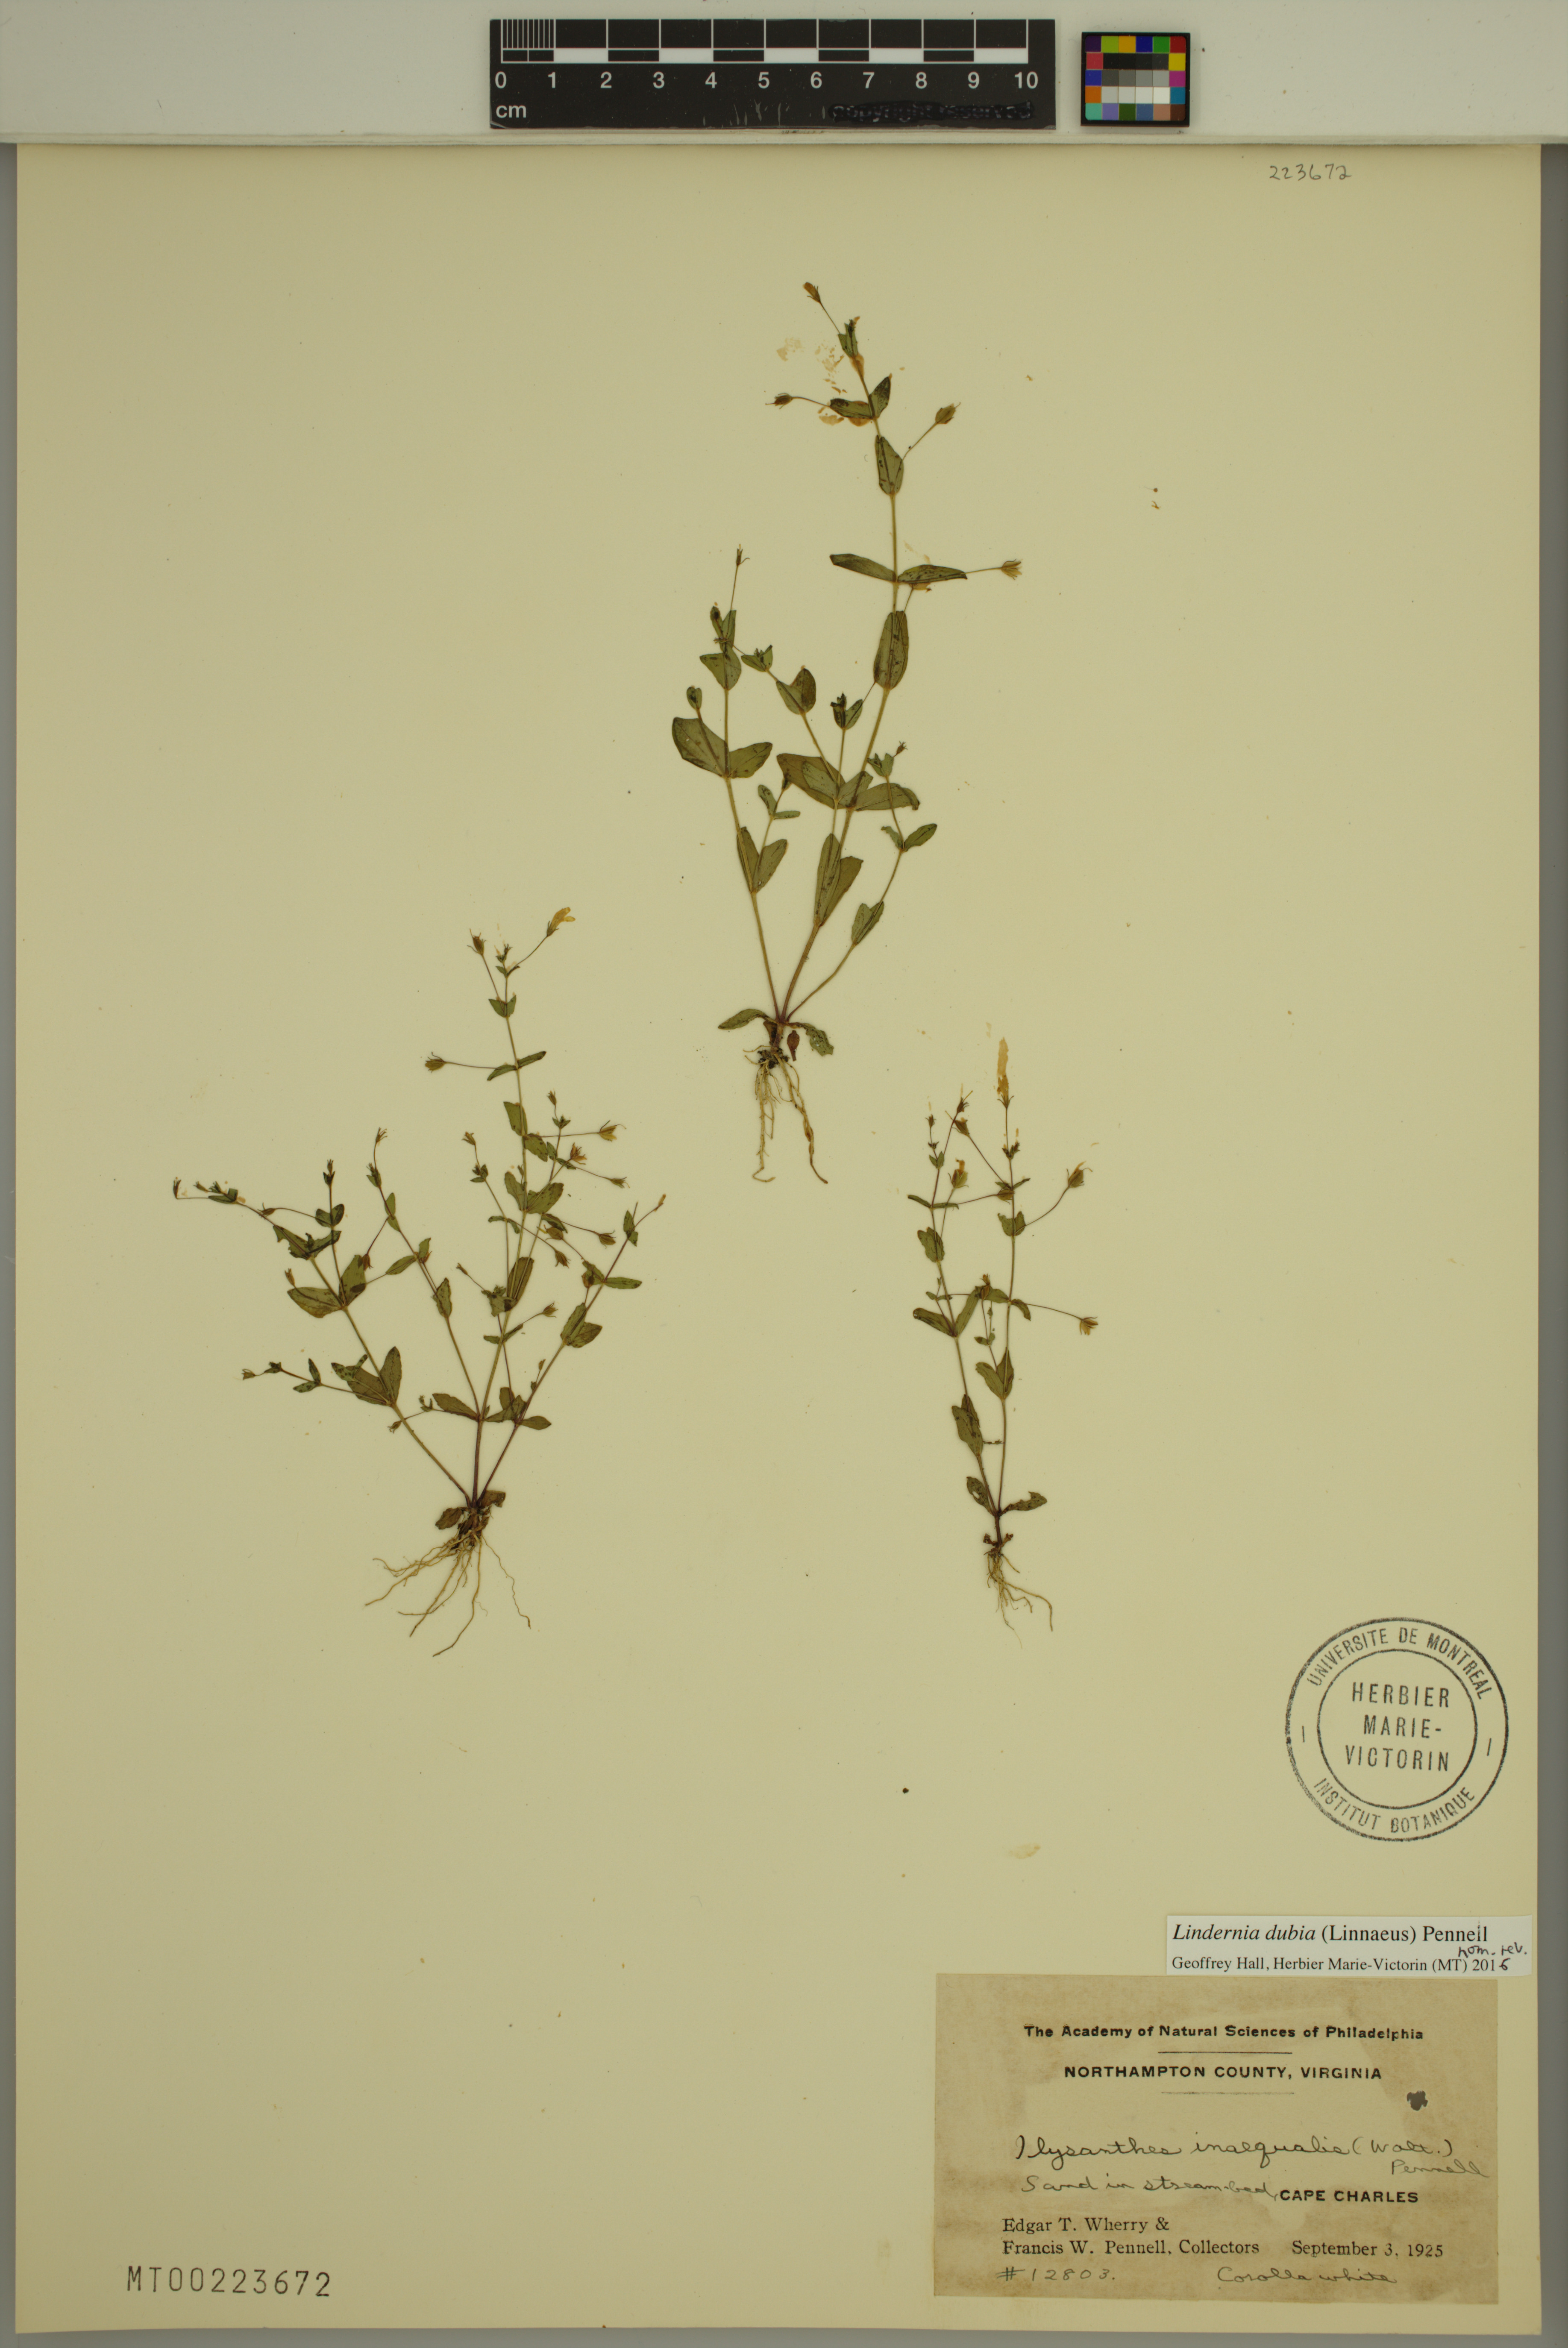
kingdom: Plantae
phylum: Tracheophyta
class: Magnoliopsida
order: Lamiales
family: Linderniaceae
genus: Lindernia
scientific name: Lindernia dubia
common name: Annual false pimpernel
